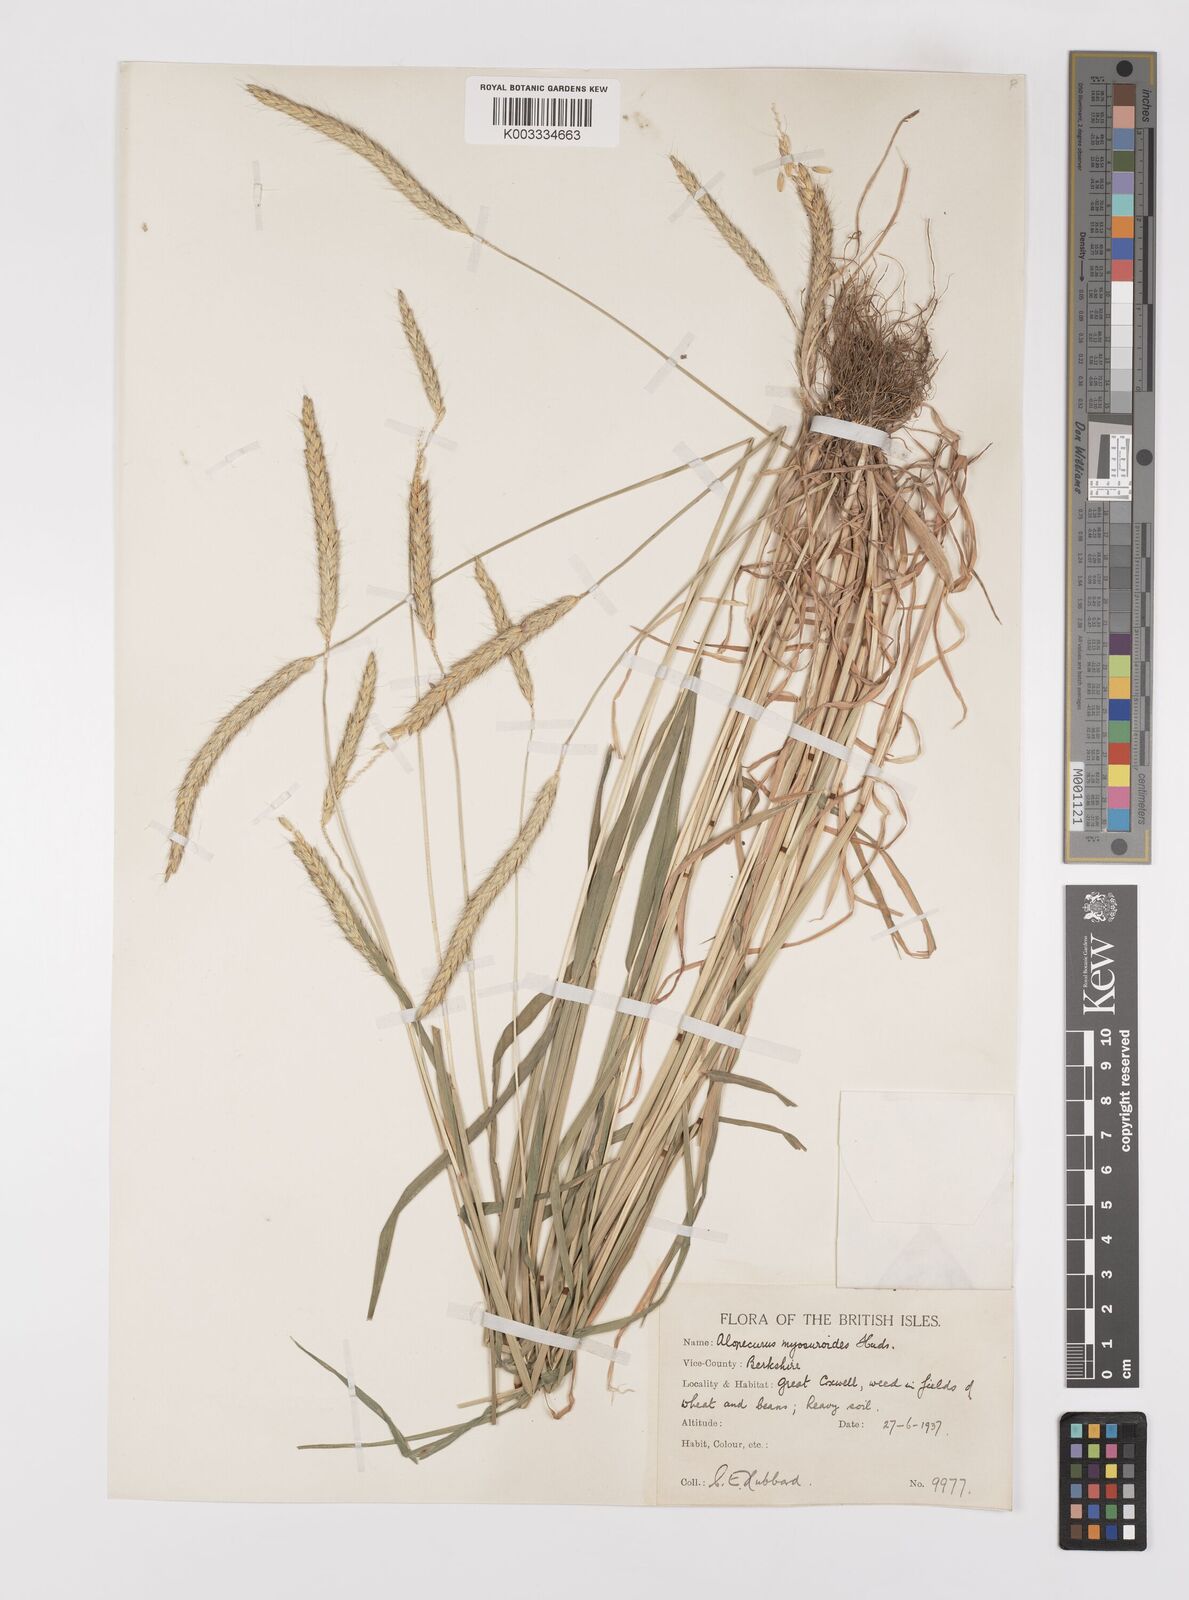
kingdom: Plantae
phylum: Tracheophyta
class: Liliopsida
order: Poales
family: Poaceae
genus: Alopecurus
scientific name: Alopecurus myosuroides
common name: Black-grass
